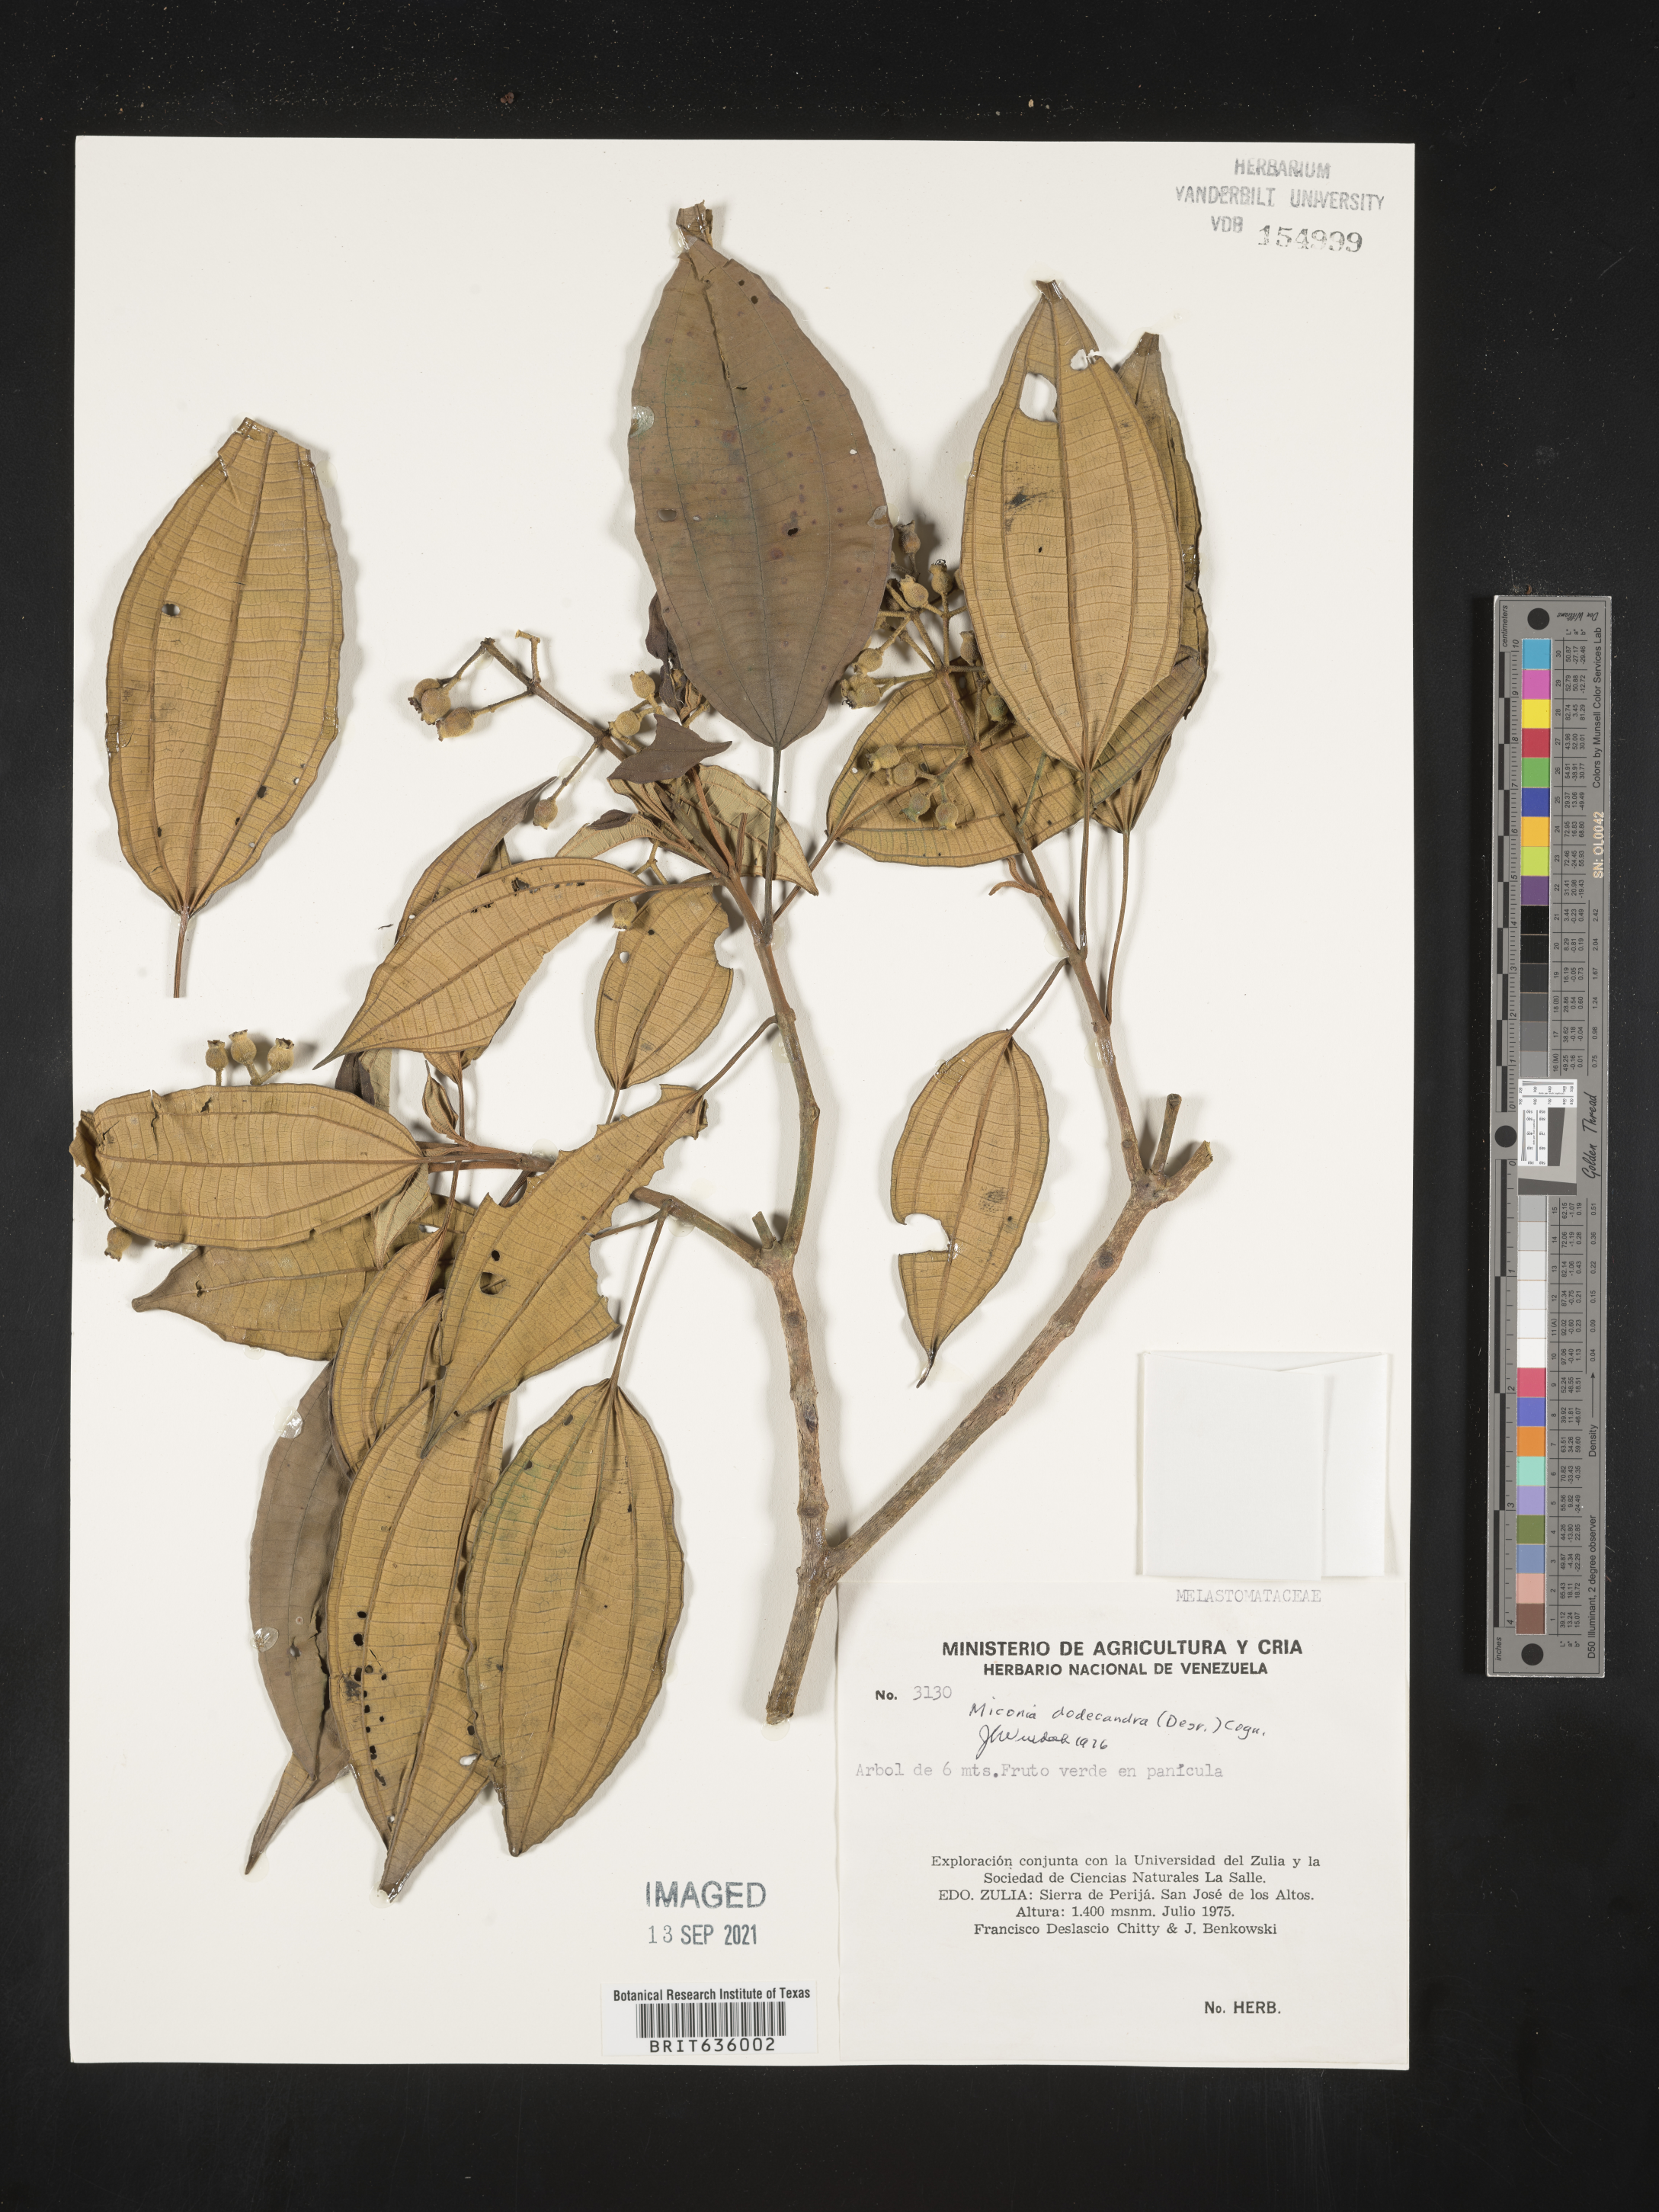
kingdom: Plantae
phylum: Tracheophyta
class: Magnoliopsida
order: Myrtales
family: Melastomataceae
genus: Miconia
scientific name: Miconia
